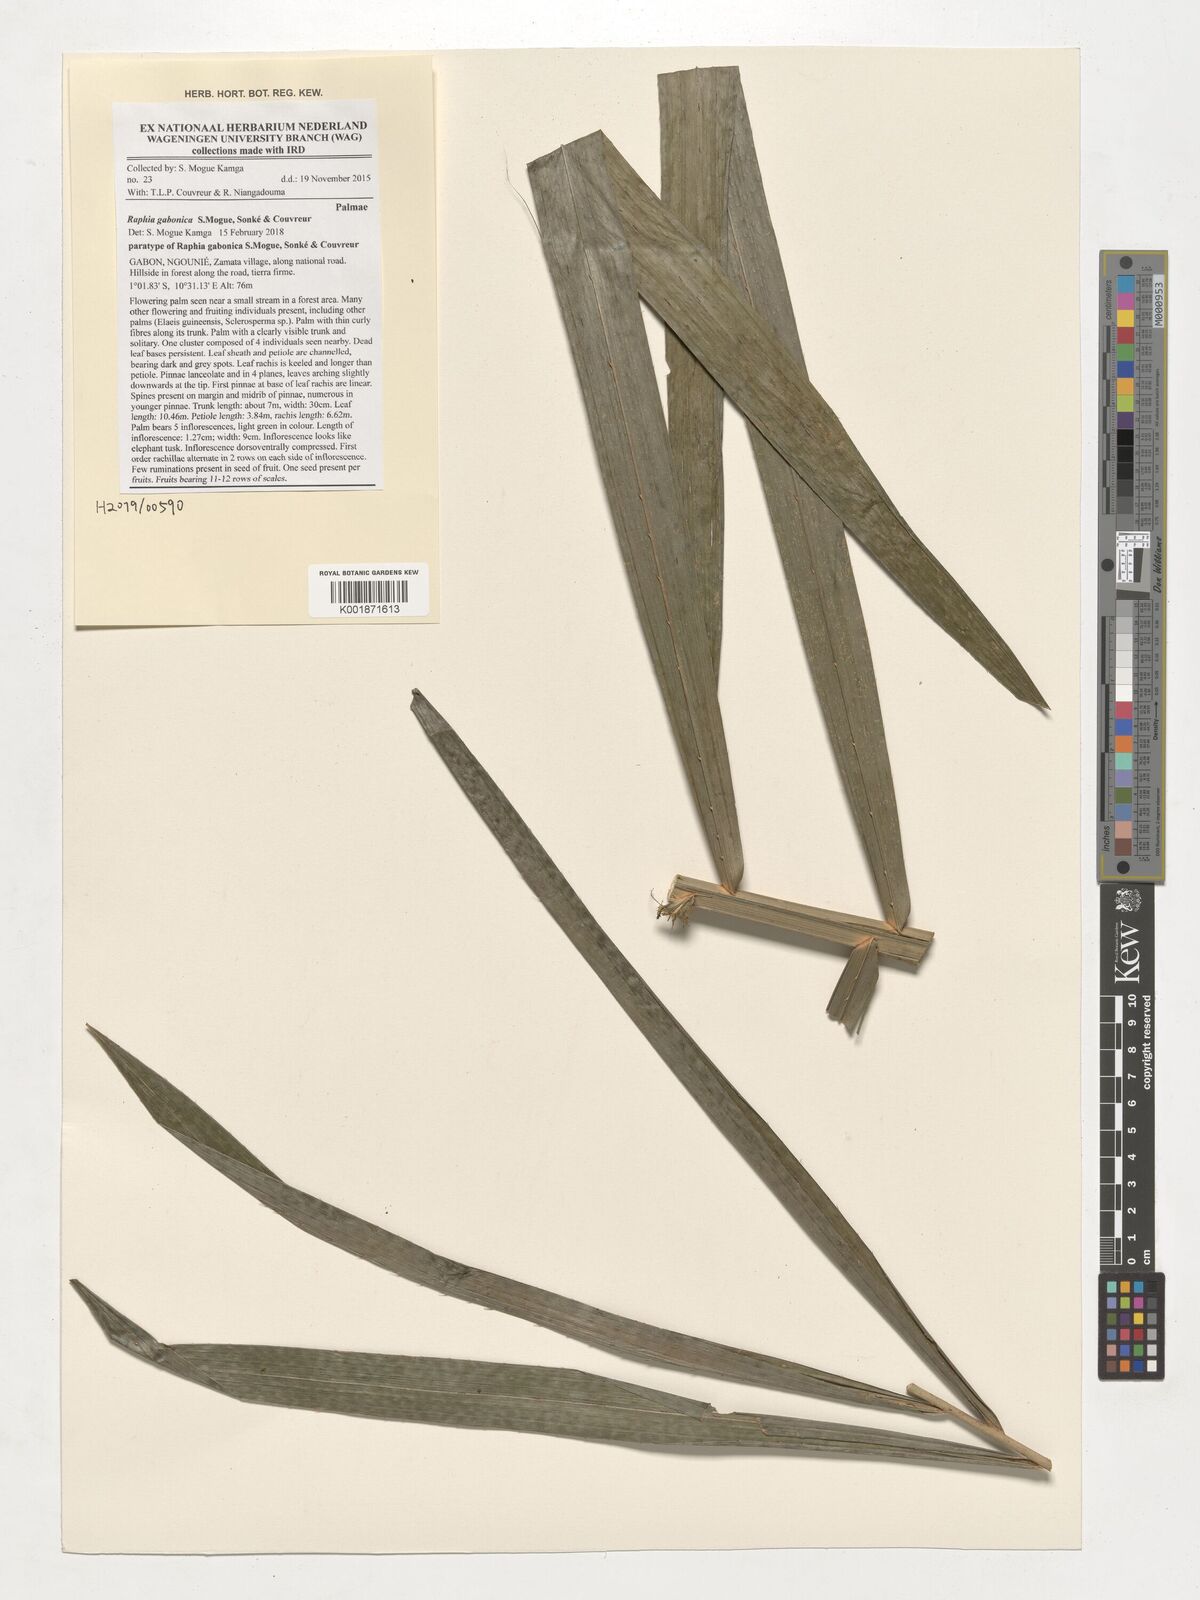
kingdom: Plantae
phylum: Tracheophyta
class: Liliopsida
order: Arecales
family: Arecaceae
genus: Raphia
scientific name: Raphia gabonica
